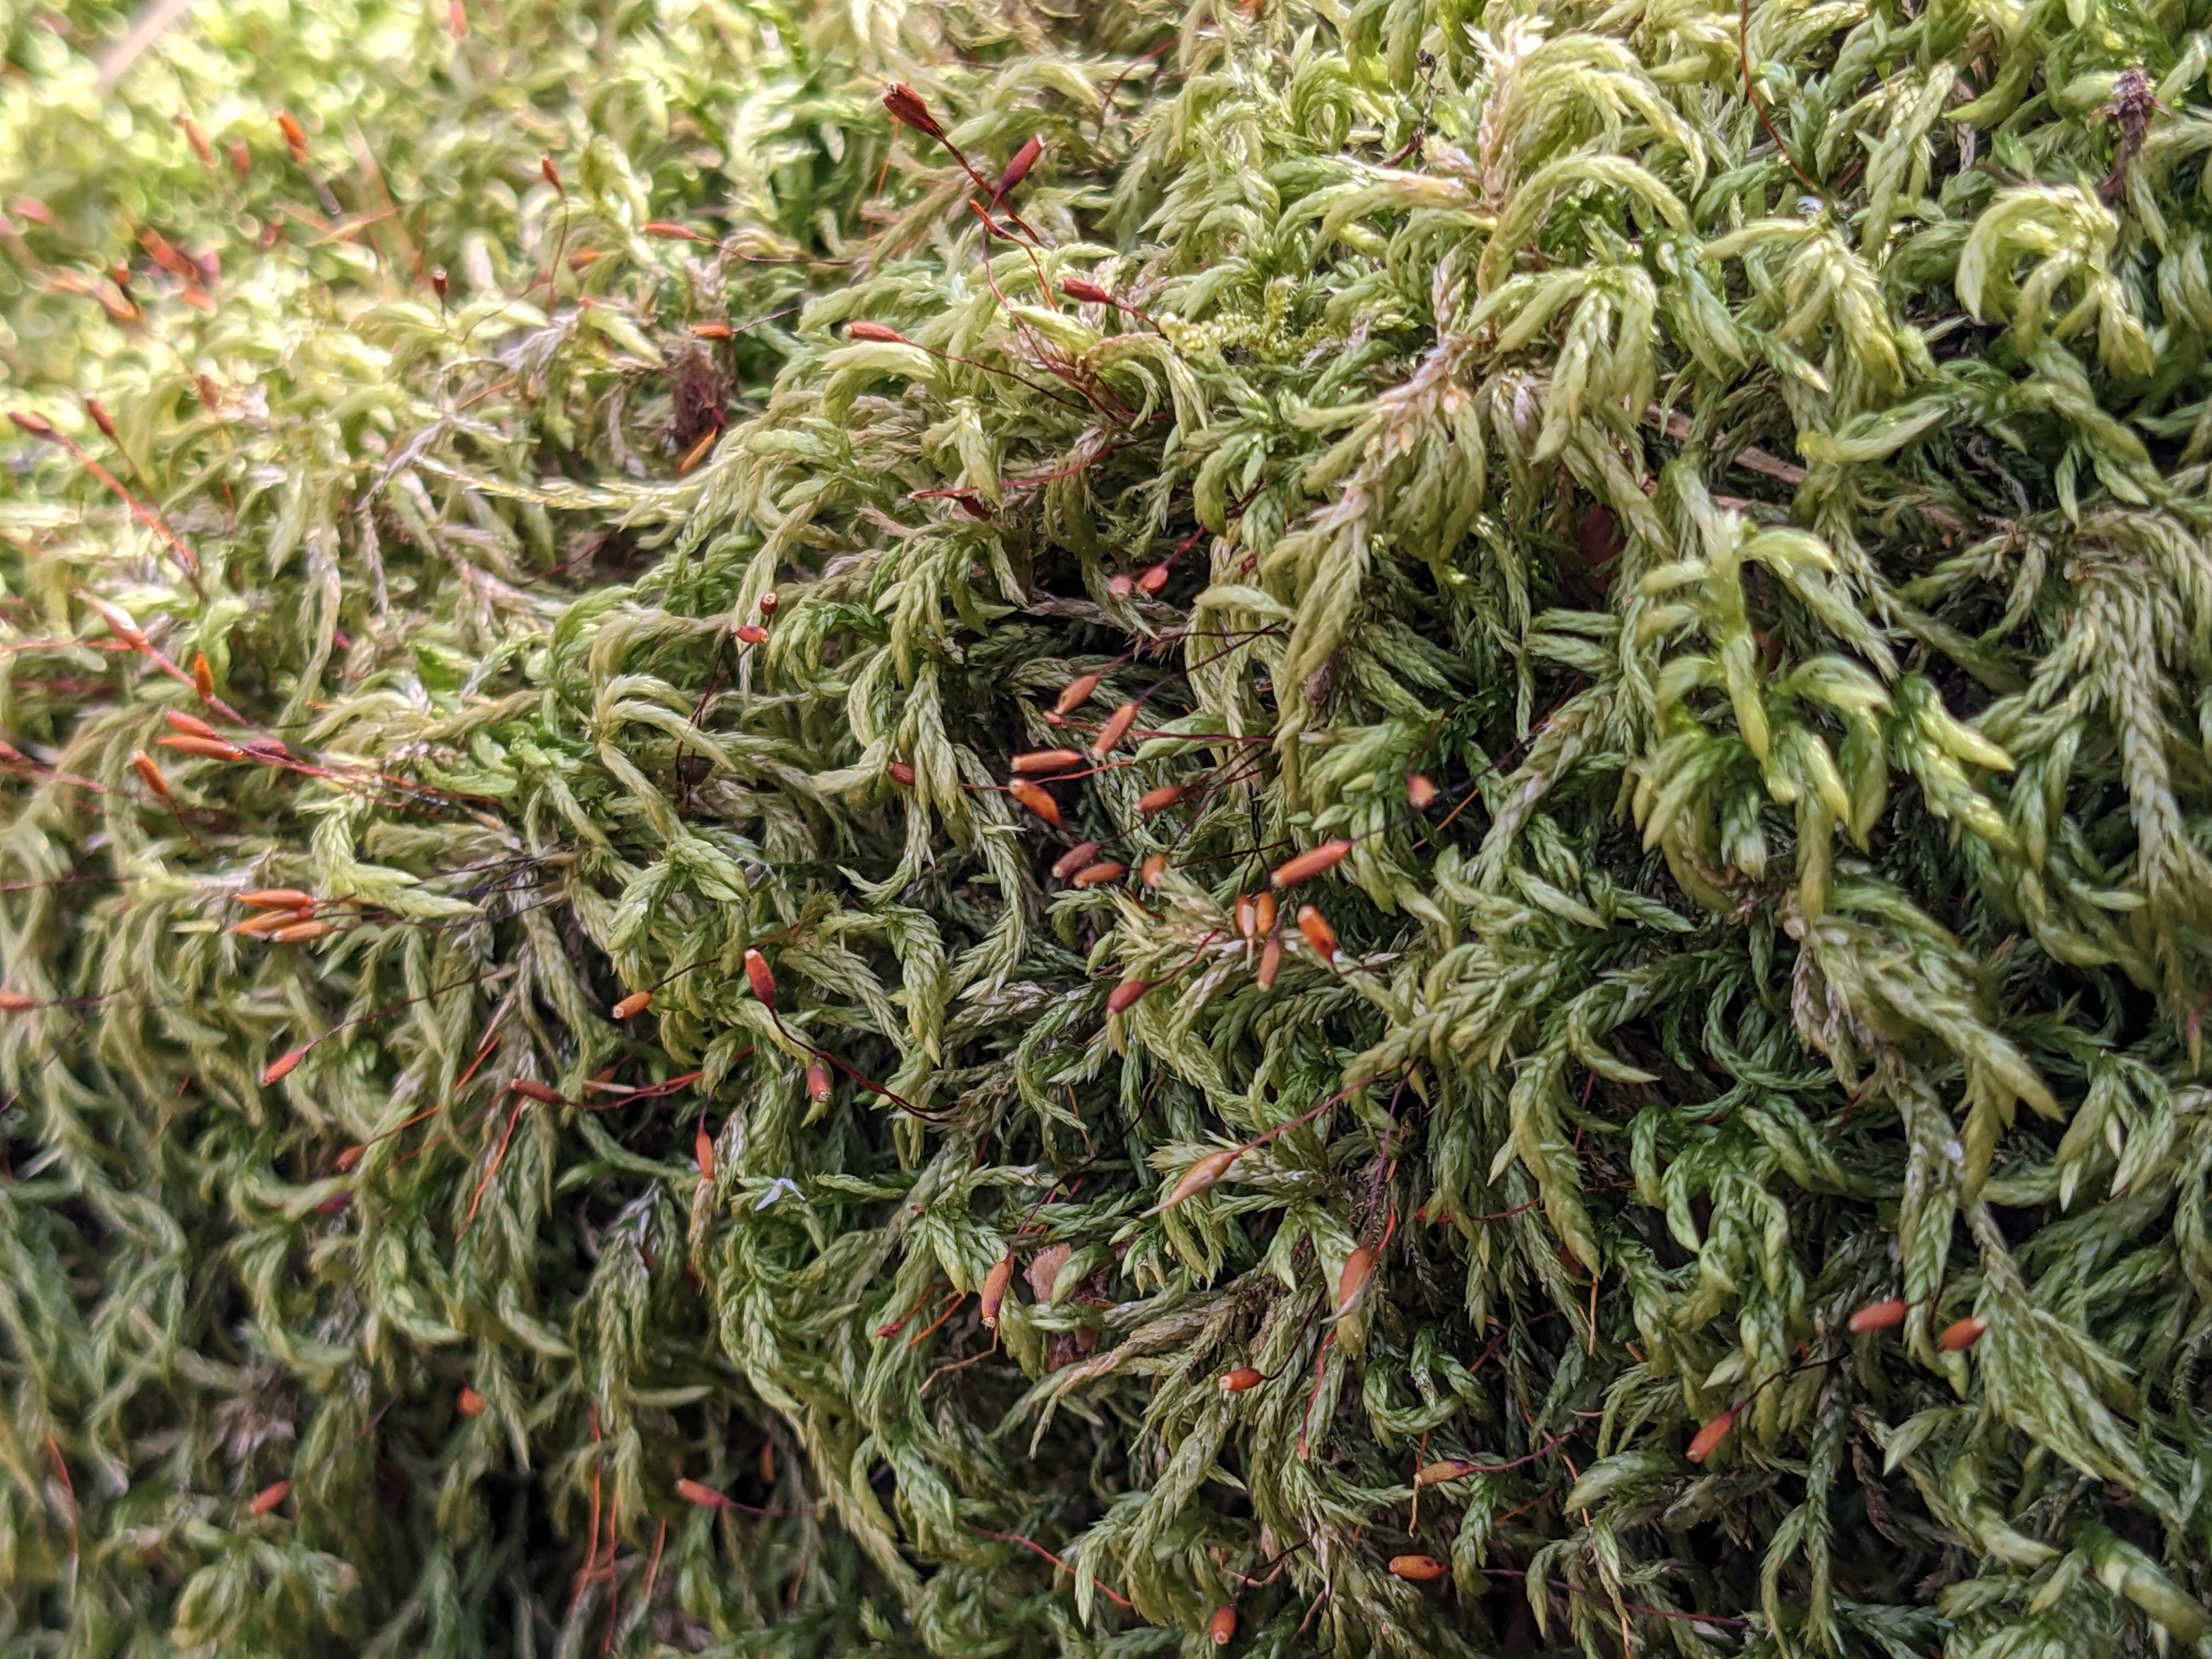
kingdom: Plantae
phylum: Bryophyta
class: Bryopsida
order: Hypnales
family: Lembophyllaceae
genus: Isothecium
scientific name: Isothecium alopecuroides
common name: Stor stammemos
